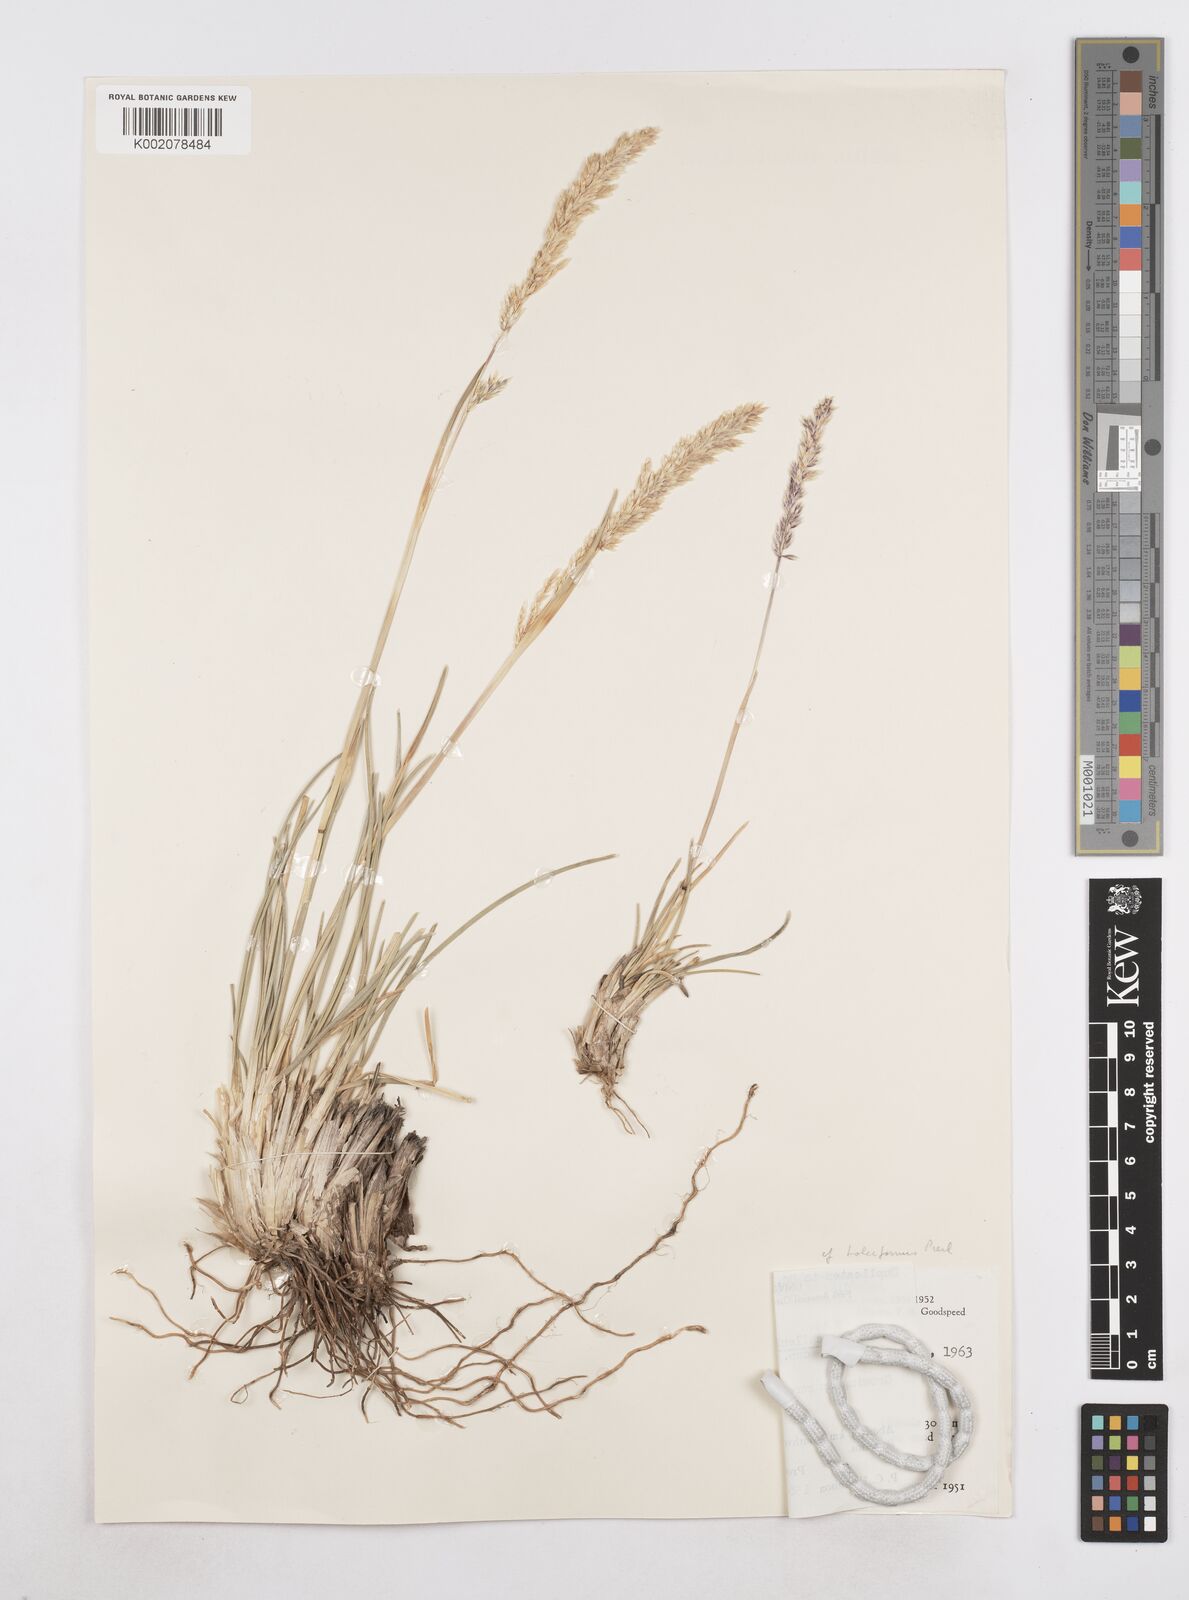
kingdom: Plantae
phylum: Tracheophyta
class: Liliopsida
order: Poales
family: Poaceae
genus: Poa
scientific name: Poa denudata
